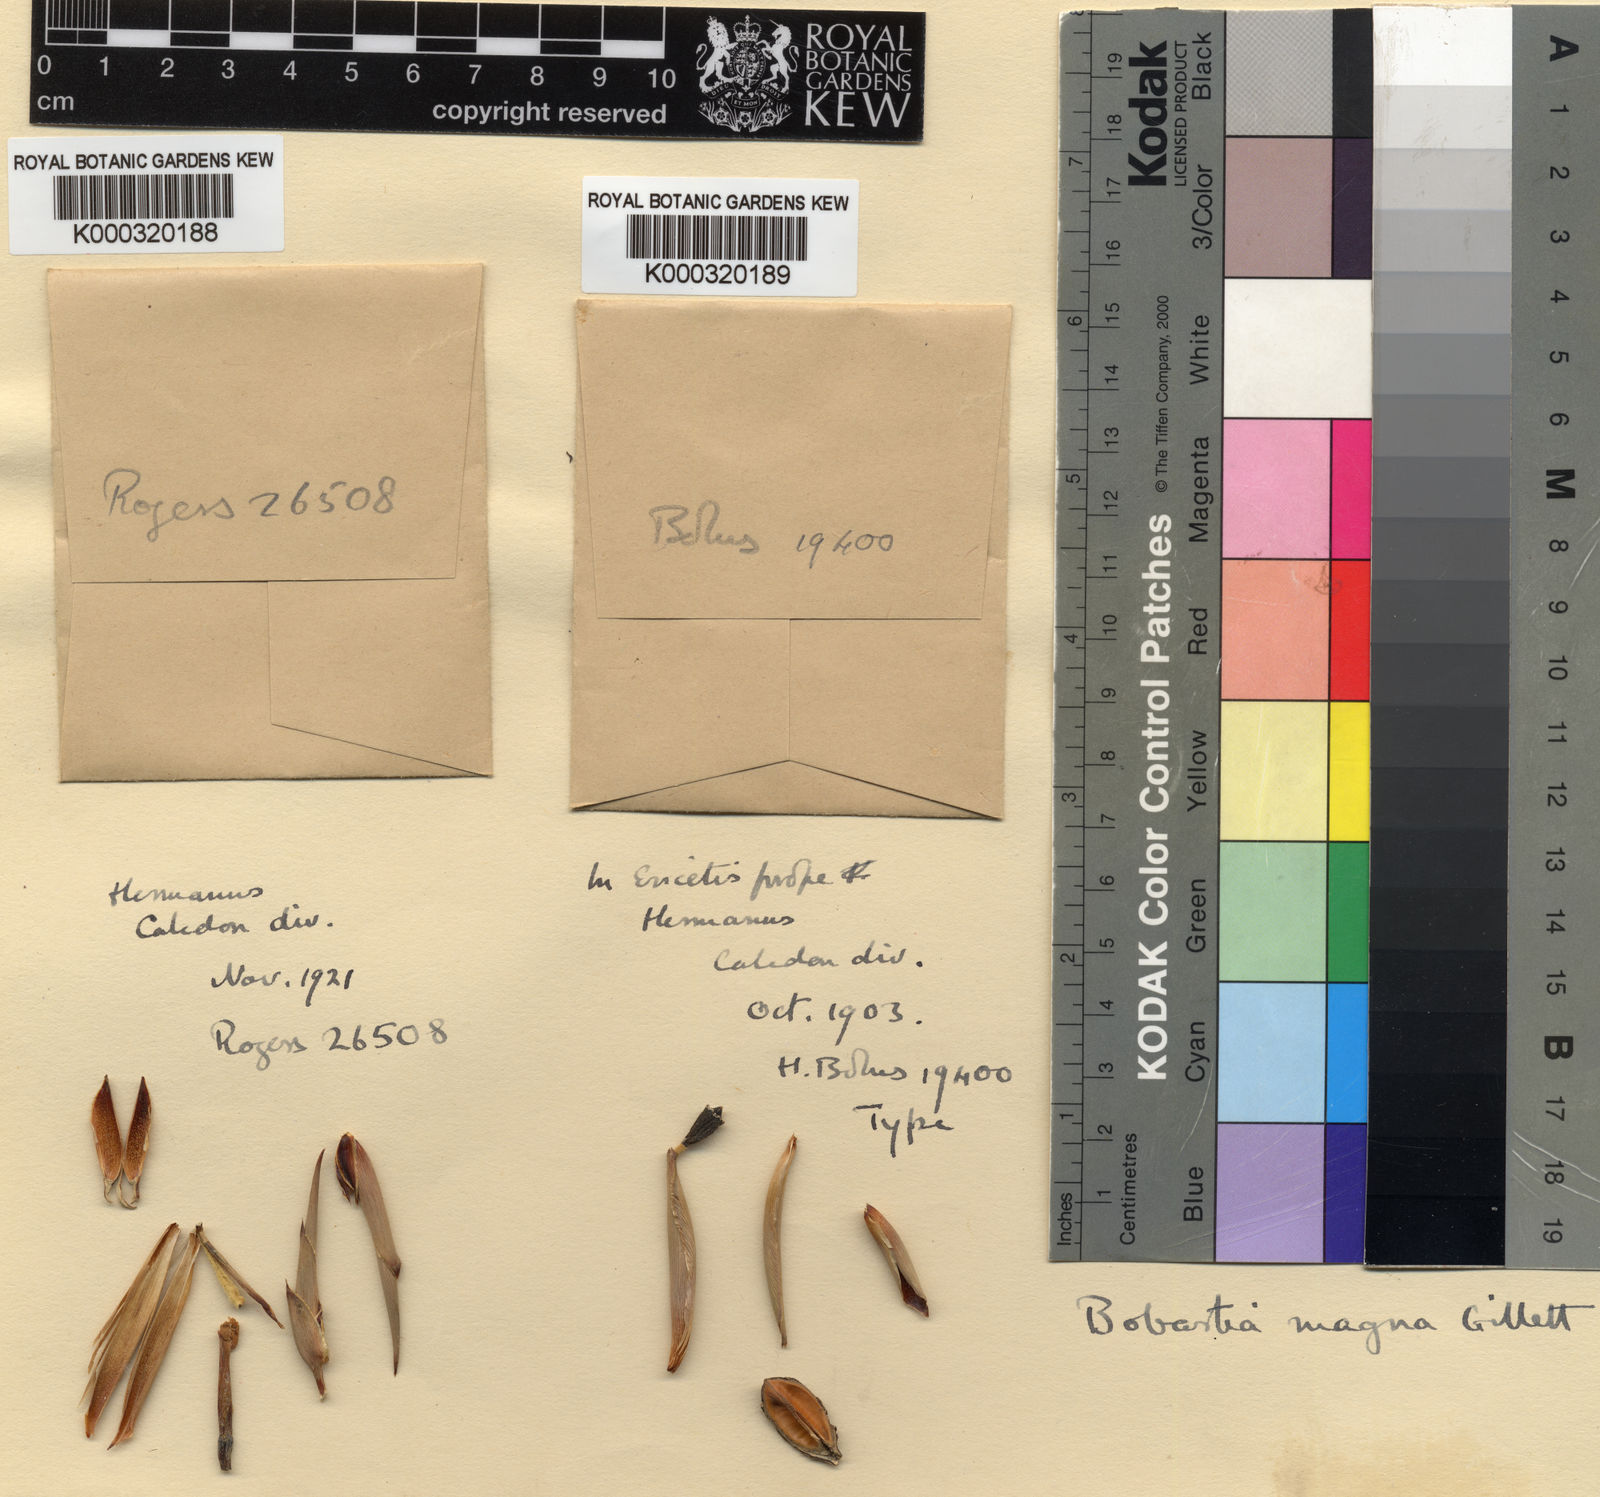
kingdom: Plantae
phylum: Tracheophyta
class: Liliopsida
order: Asparagales
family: Iridaceae
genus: Bobartia
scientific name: Bobartia longicyma
